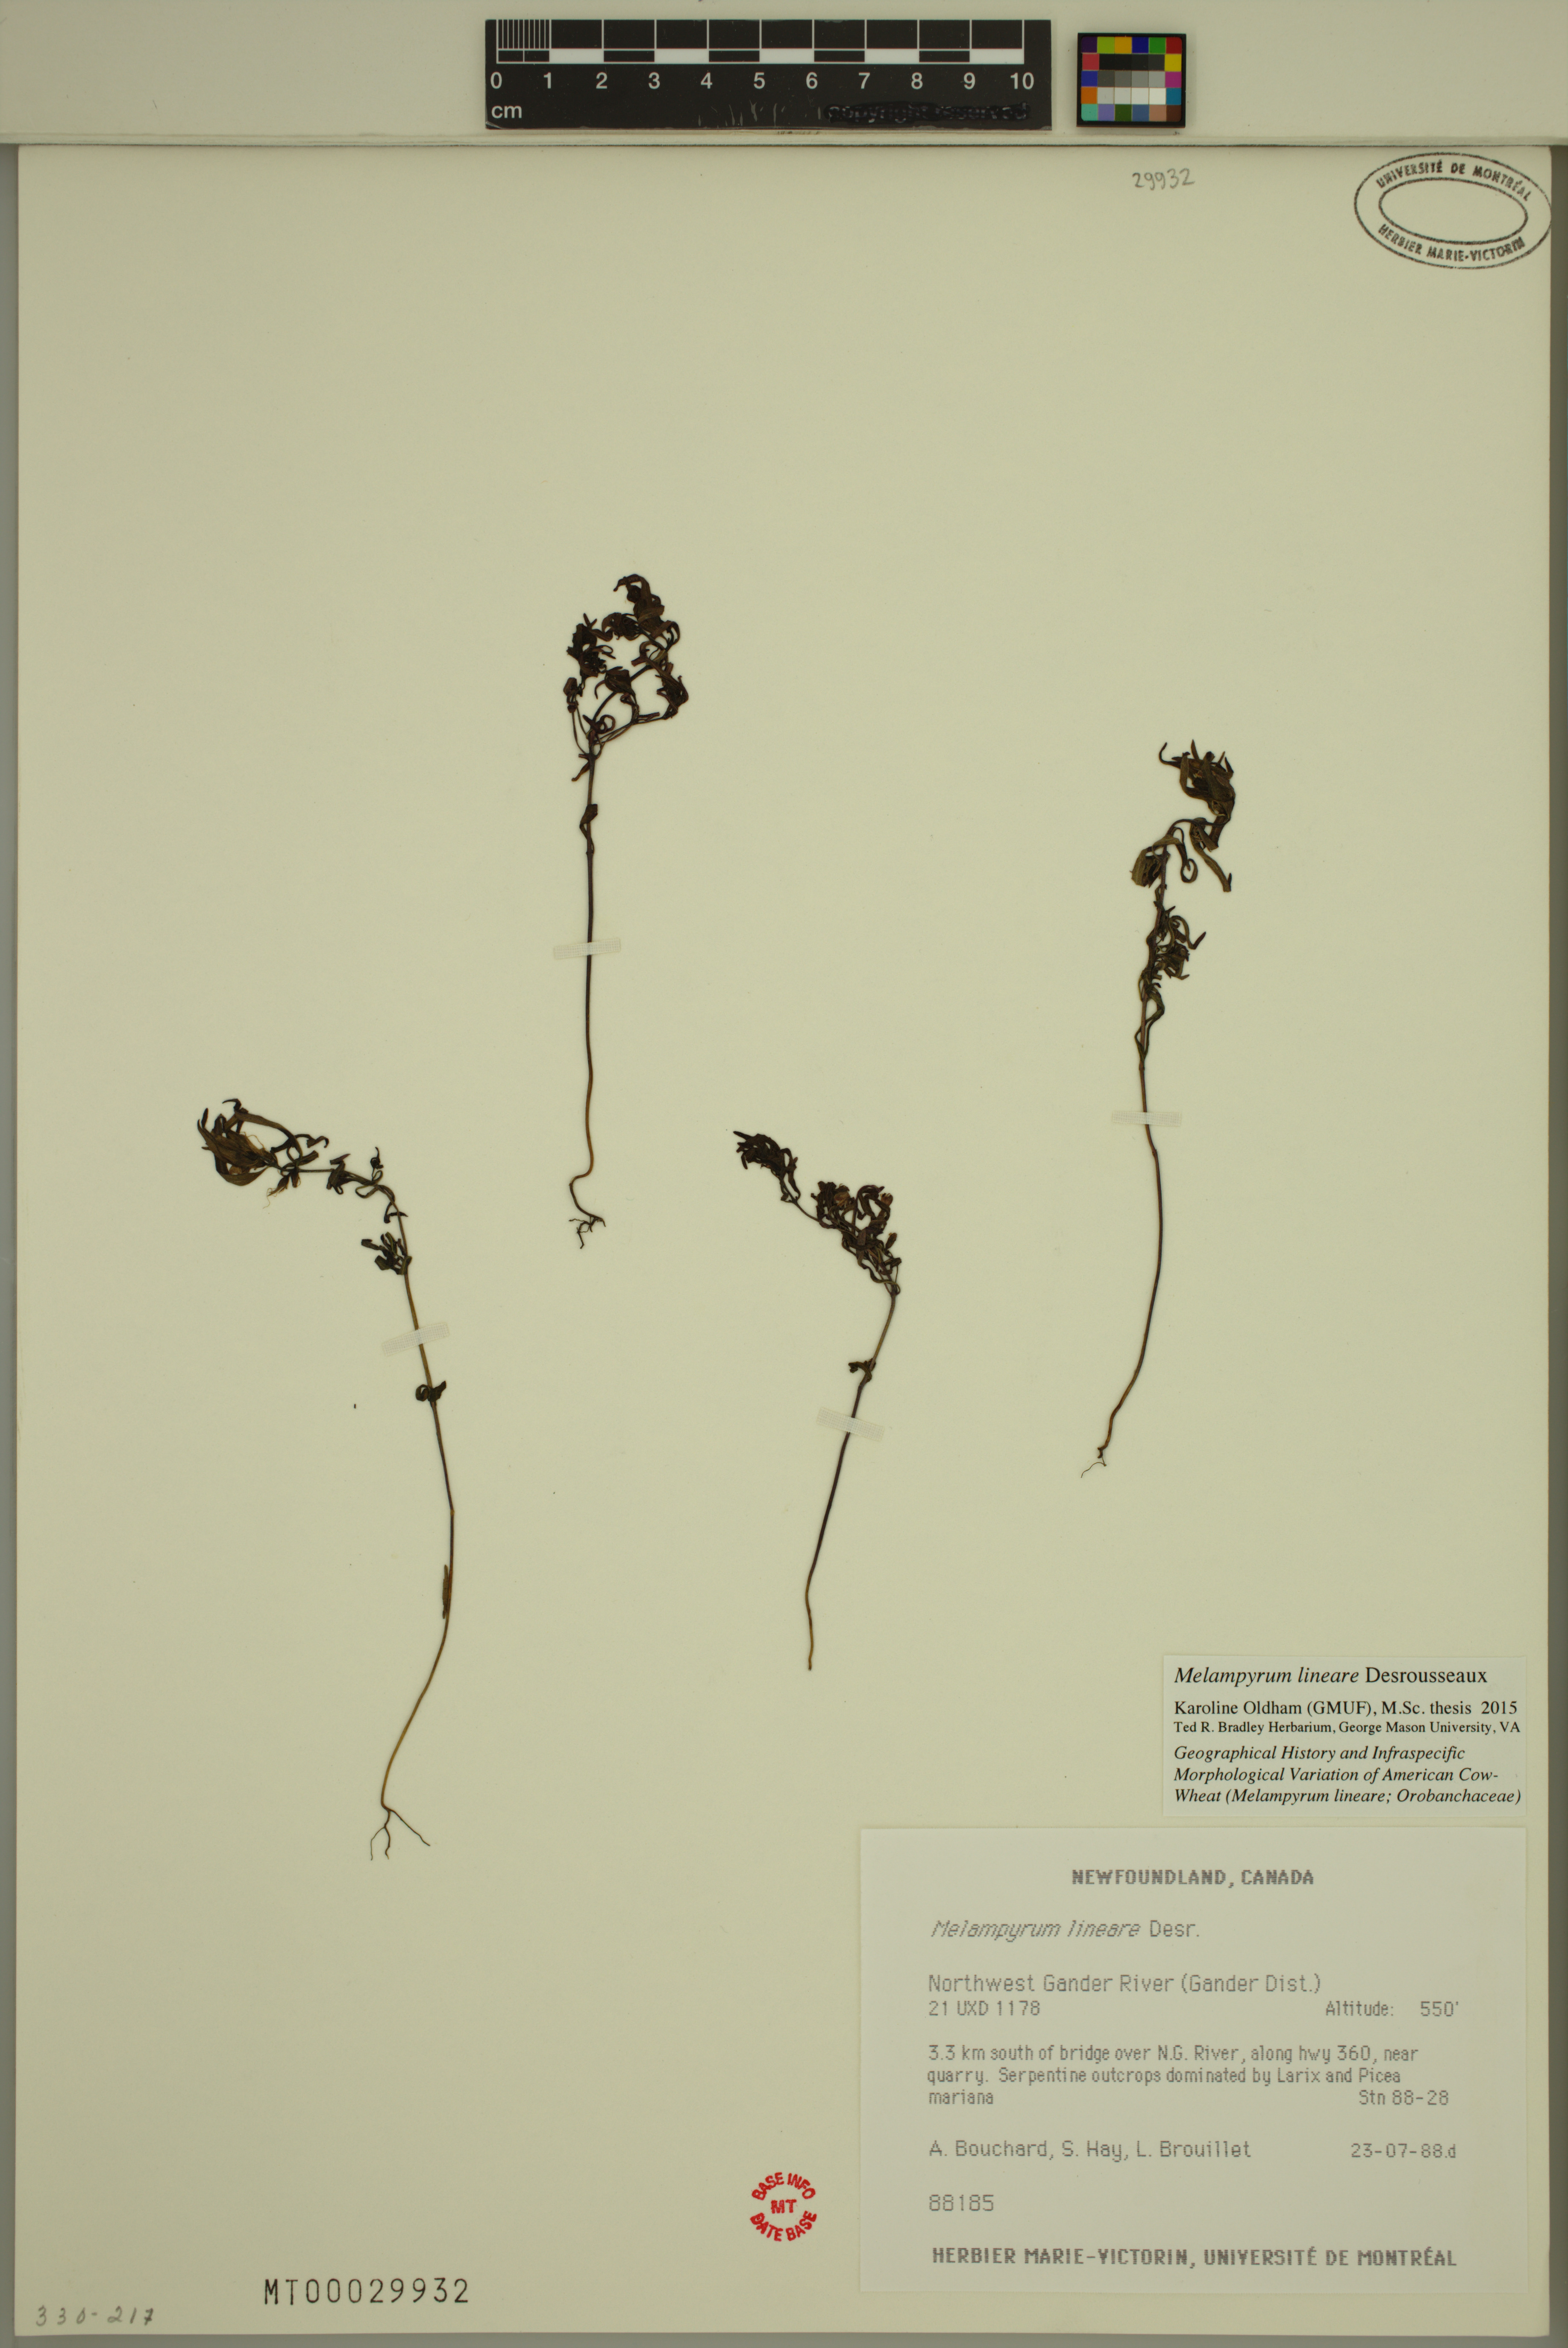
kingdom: Plantae
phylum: Tracheophyta
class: Magnoliopsida
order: Lamiales
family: Orobanchaceae
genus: Melampyrum
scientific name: Melampyrum lineare
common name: American cow-wheat
